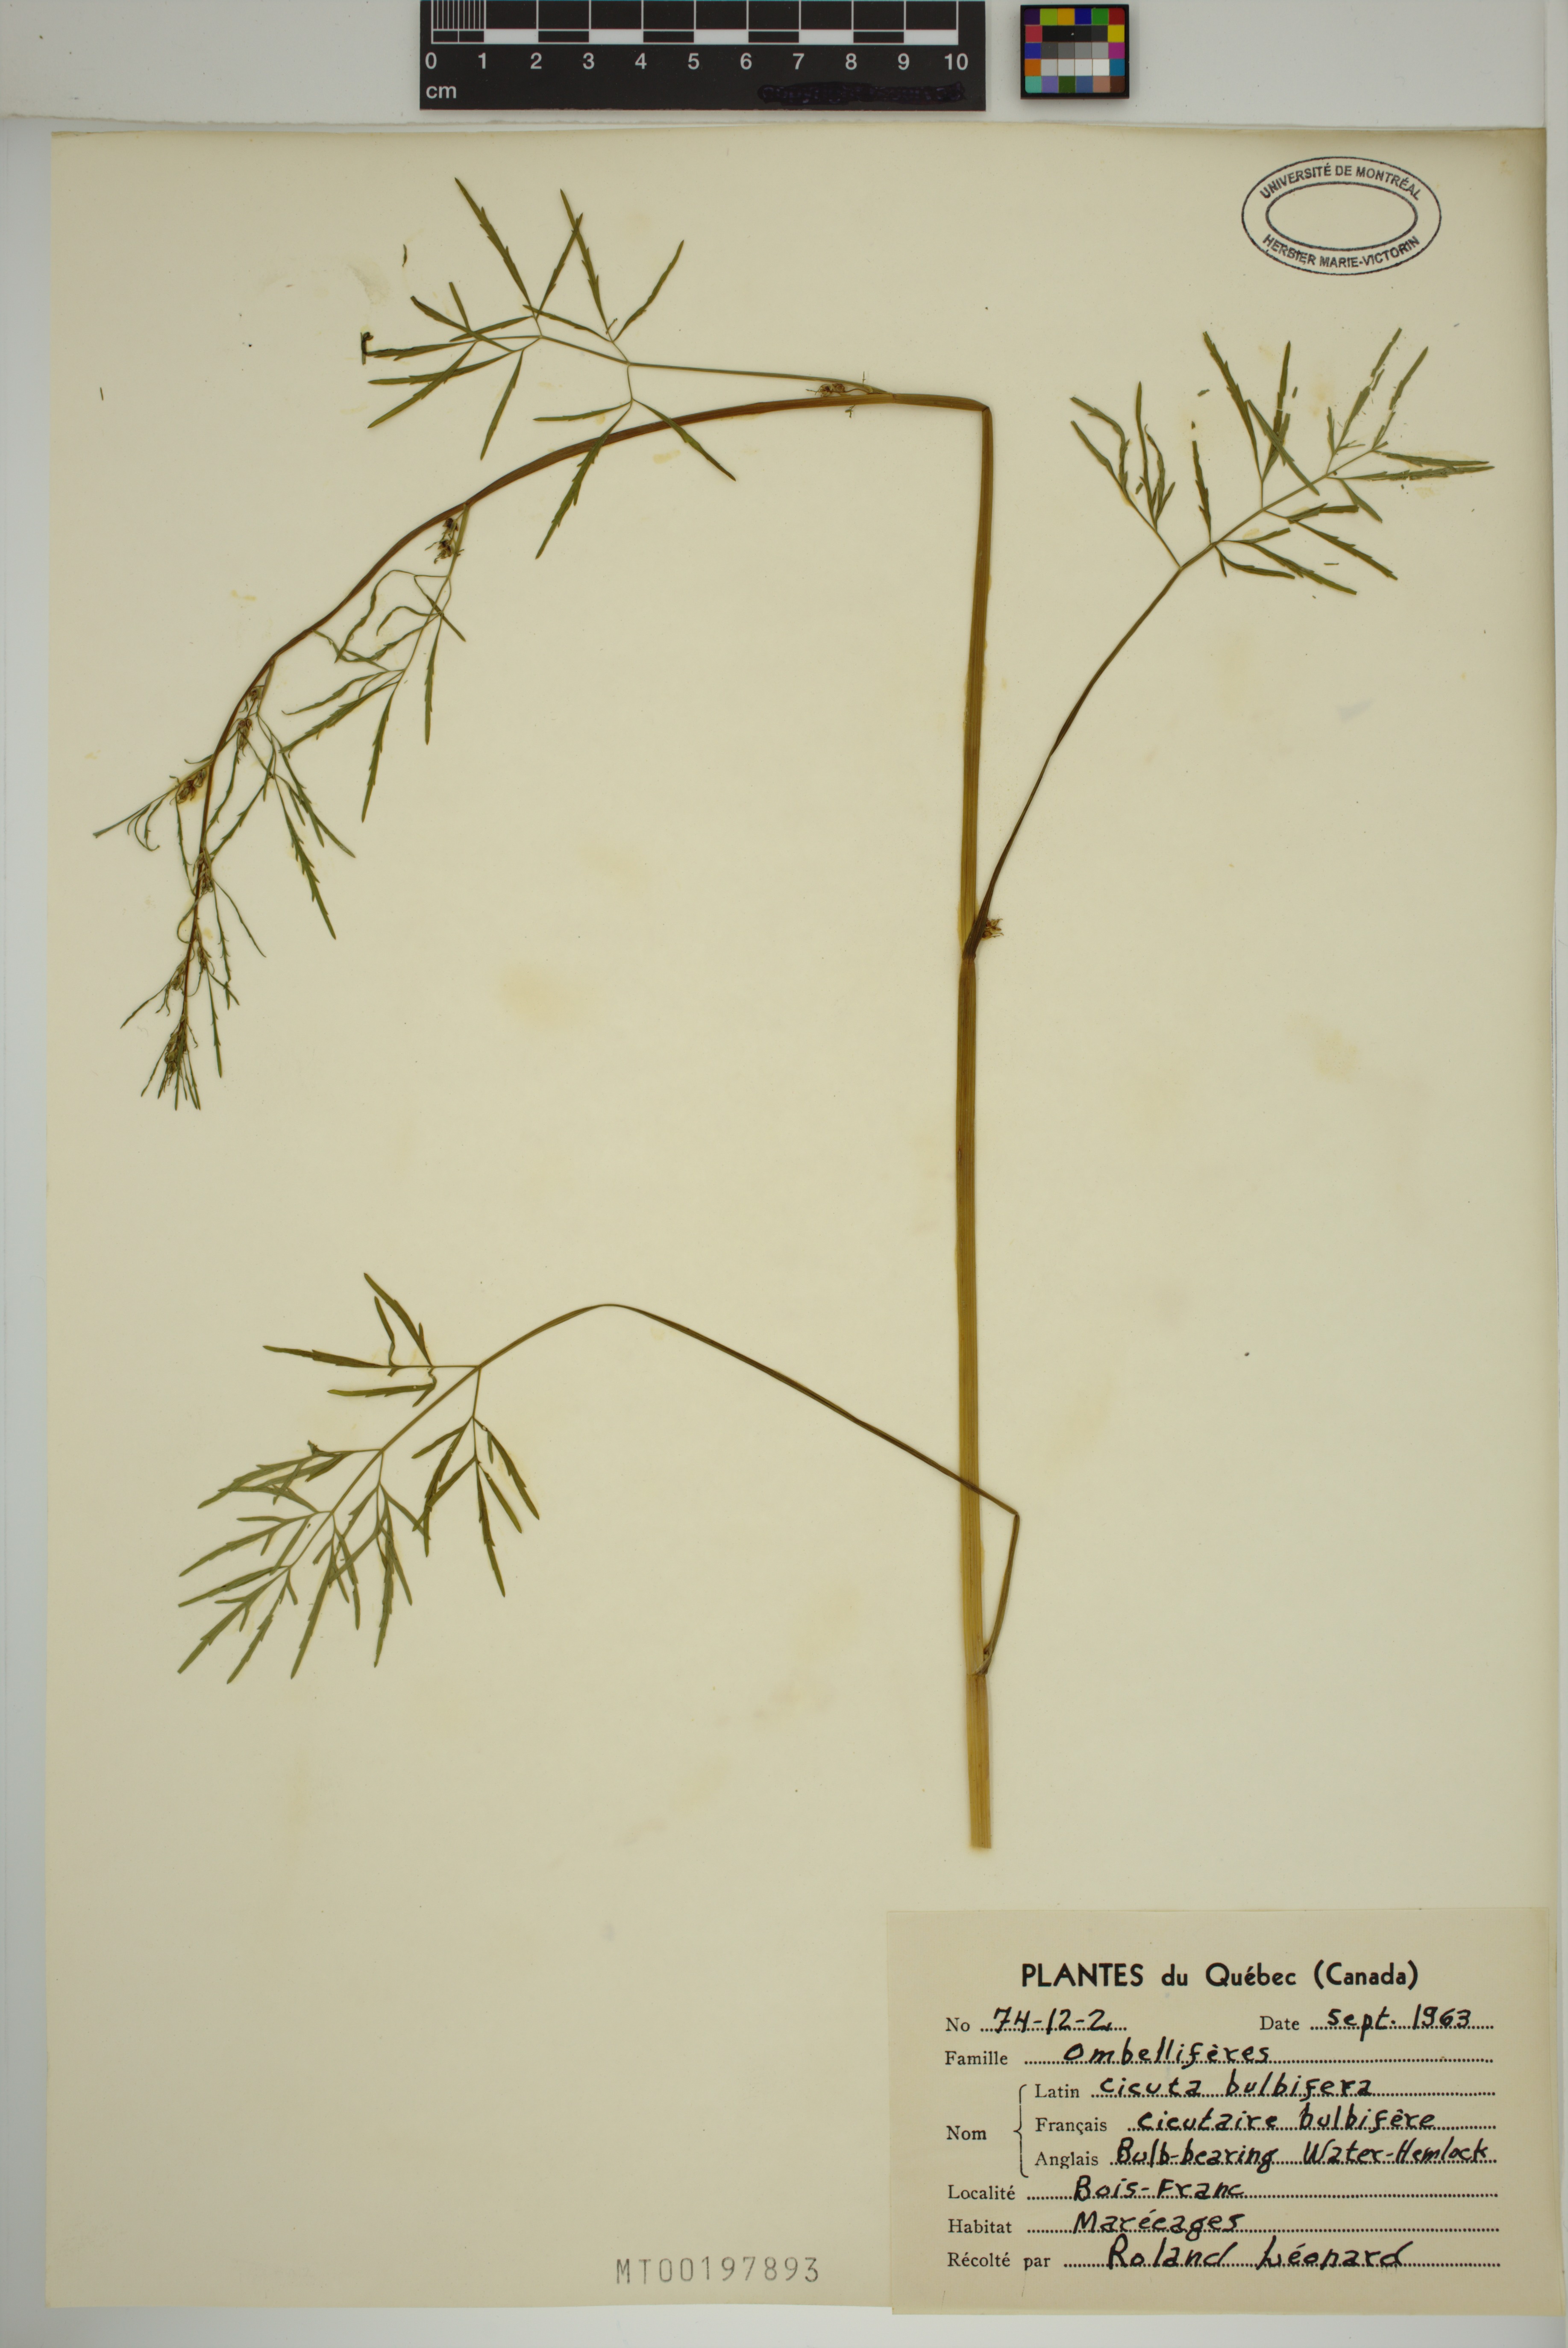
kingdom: Plantae
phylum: Tracheophyta
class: Magnoliopsida
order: Apiales
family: Apiaceae
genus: Cicuta
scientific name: Cicuta bulbifera
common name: Bulb-bearing water-hemlock
